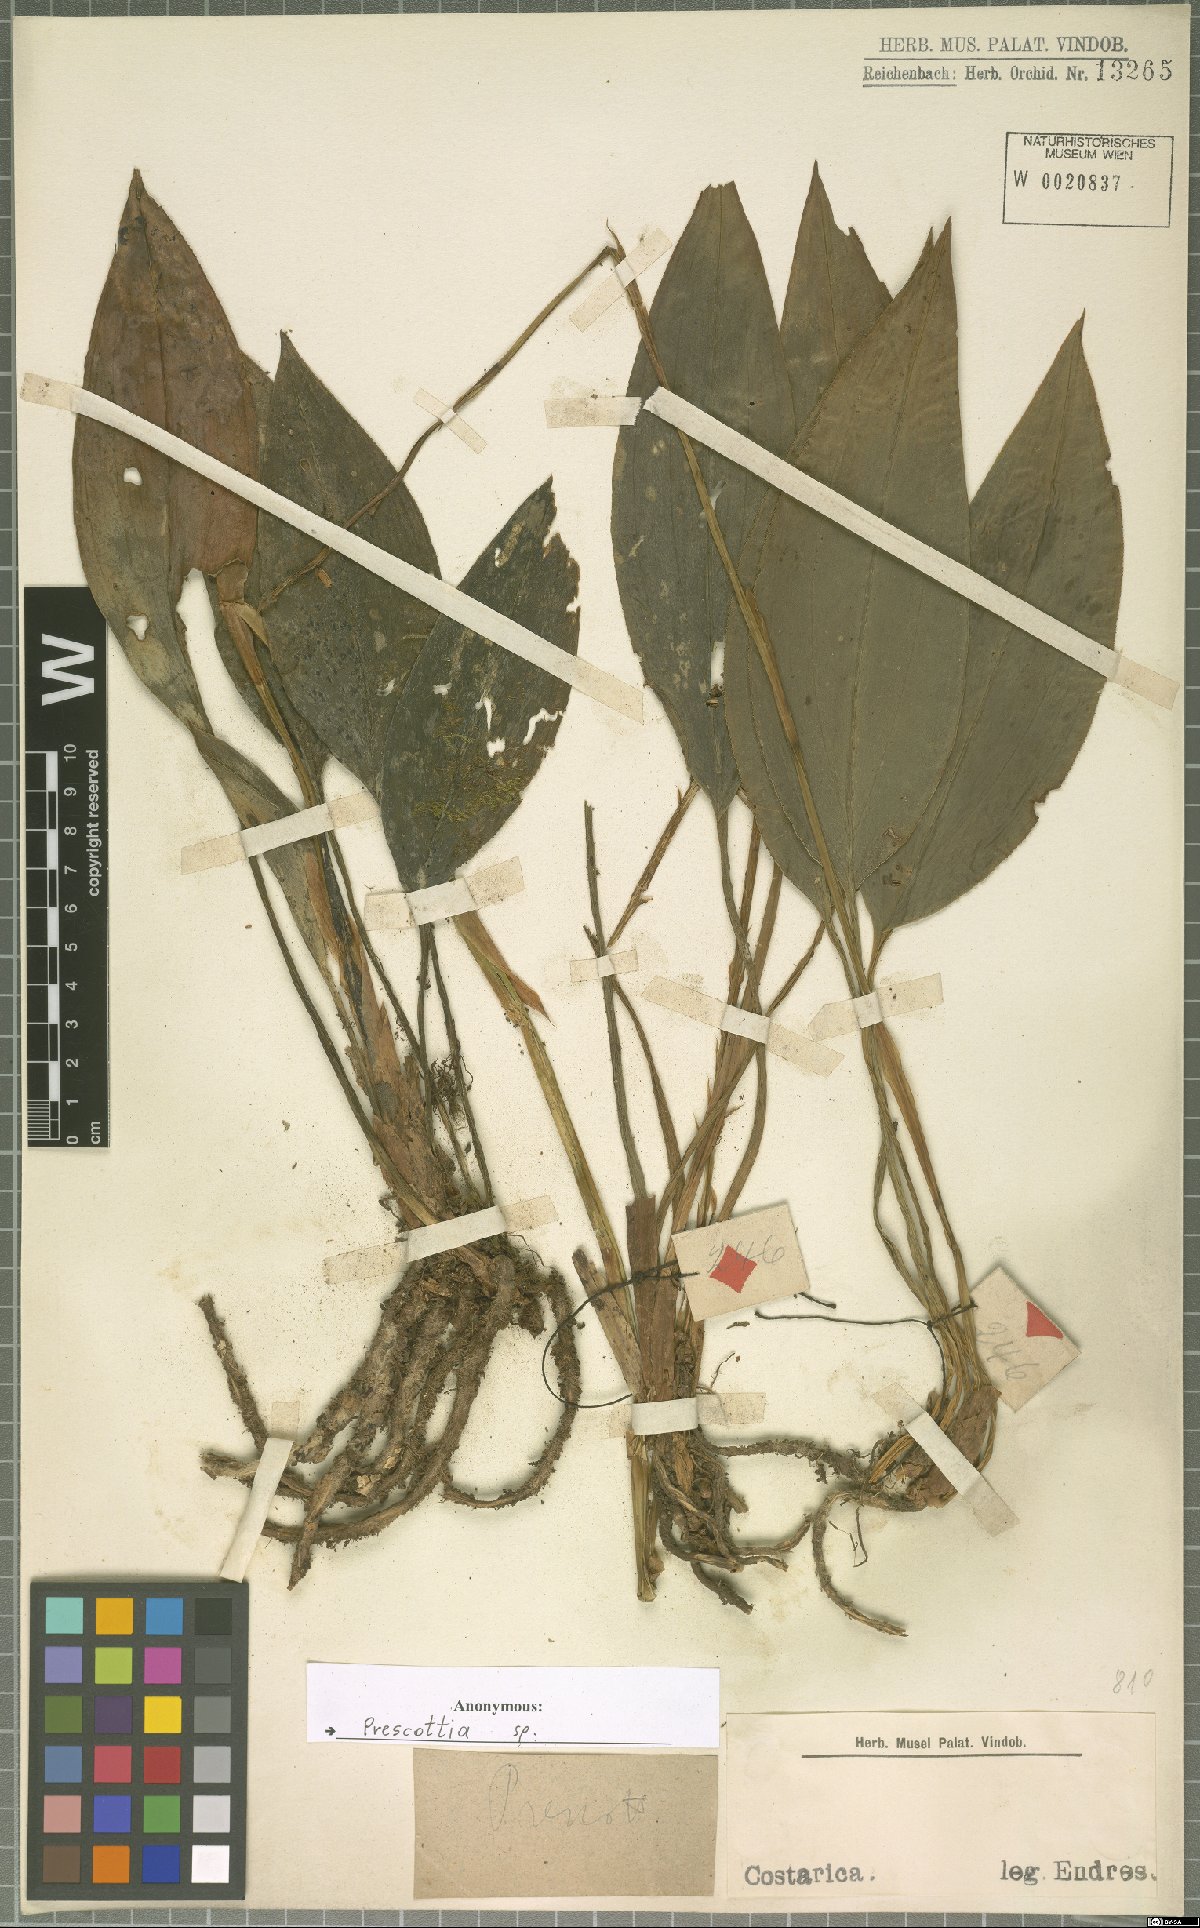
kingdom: Plantae
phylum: Tracheophyta
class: Liliopsida
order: Asparagales
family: Orchidaceae
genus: Prescottia
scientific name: Prescottia
